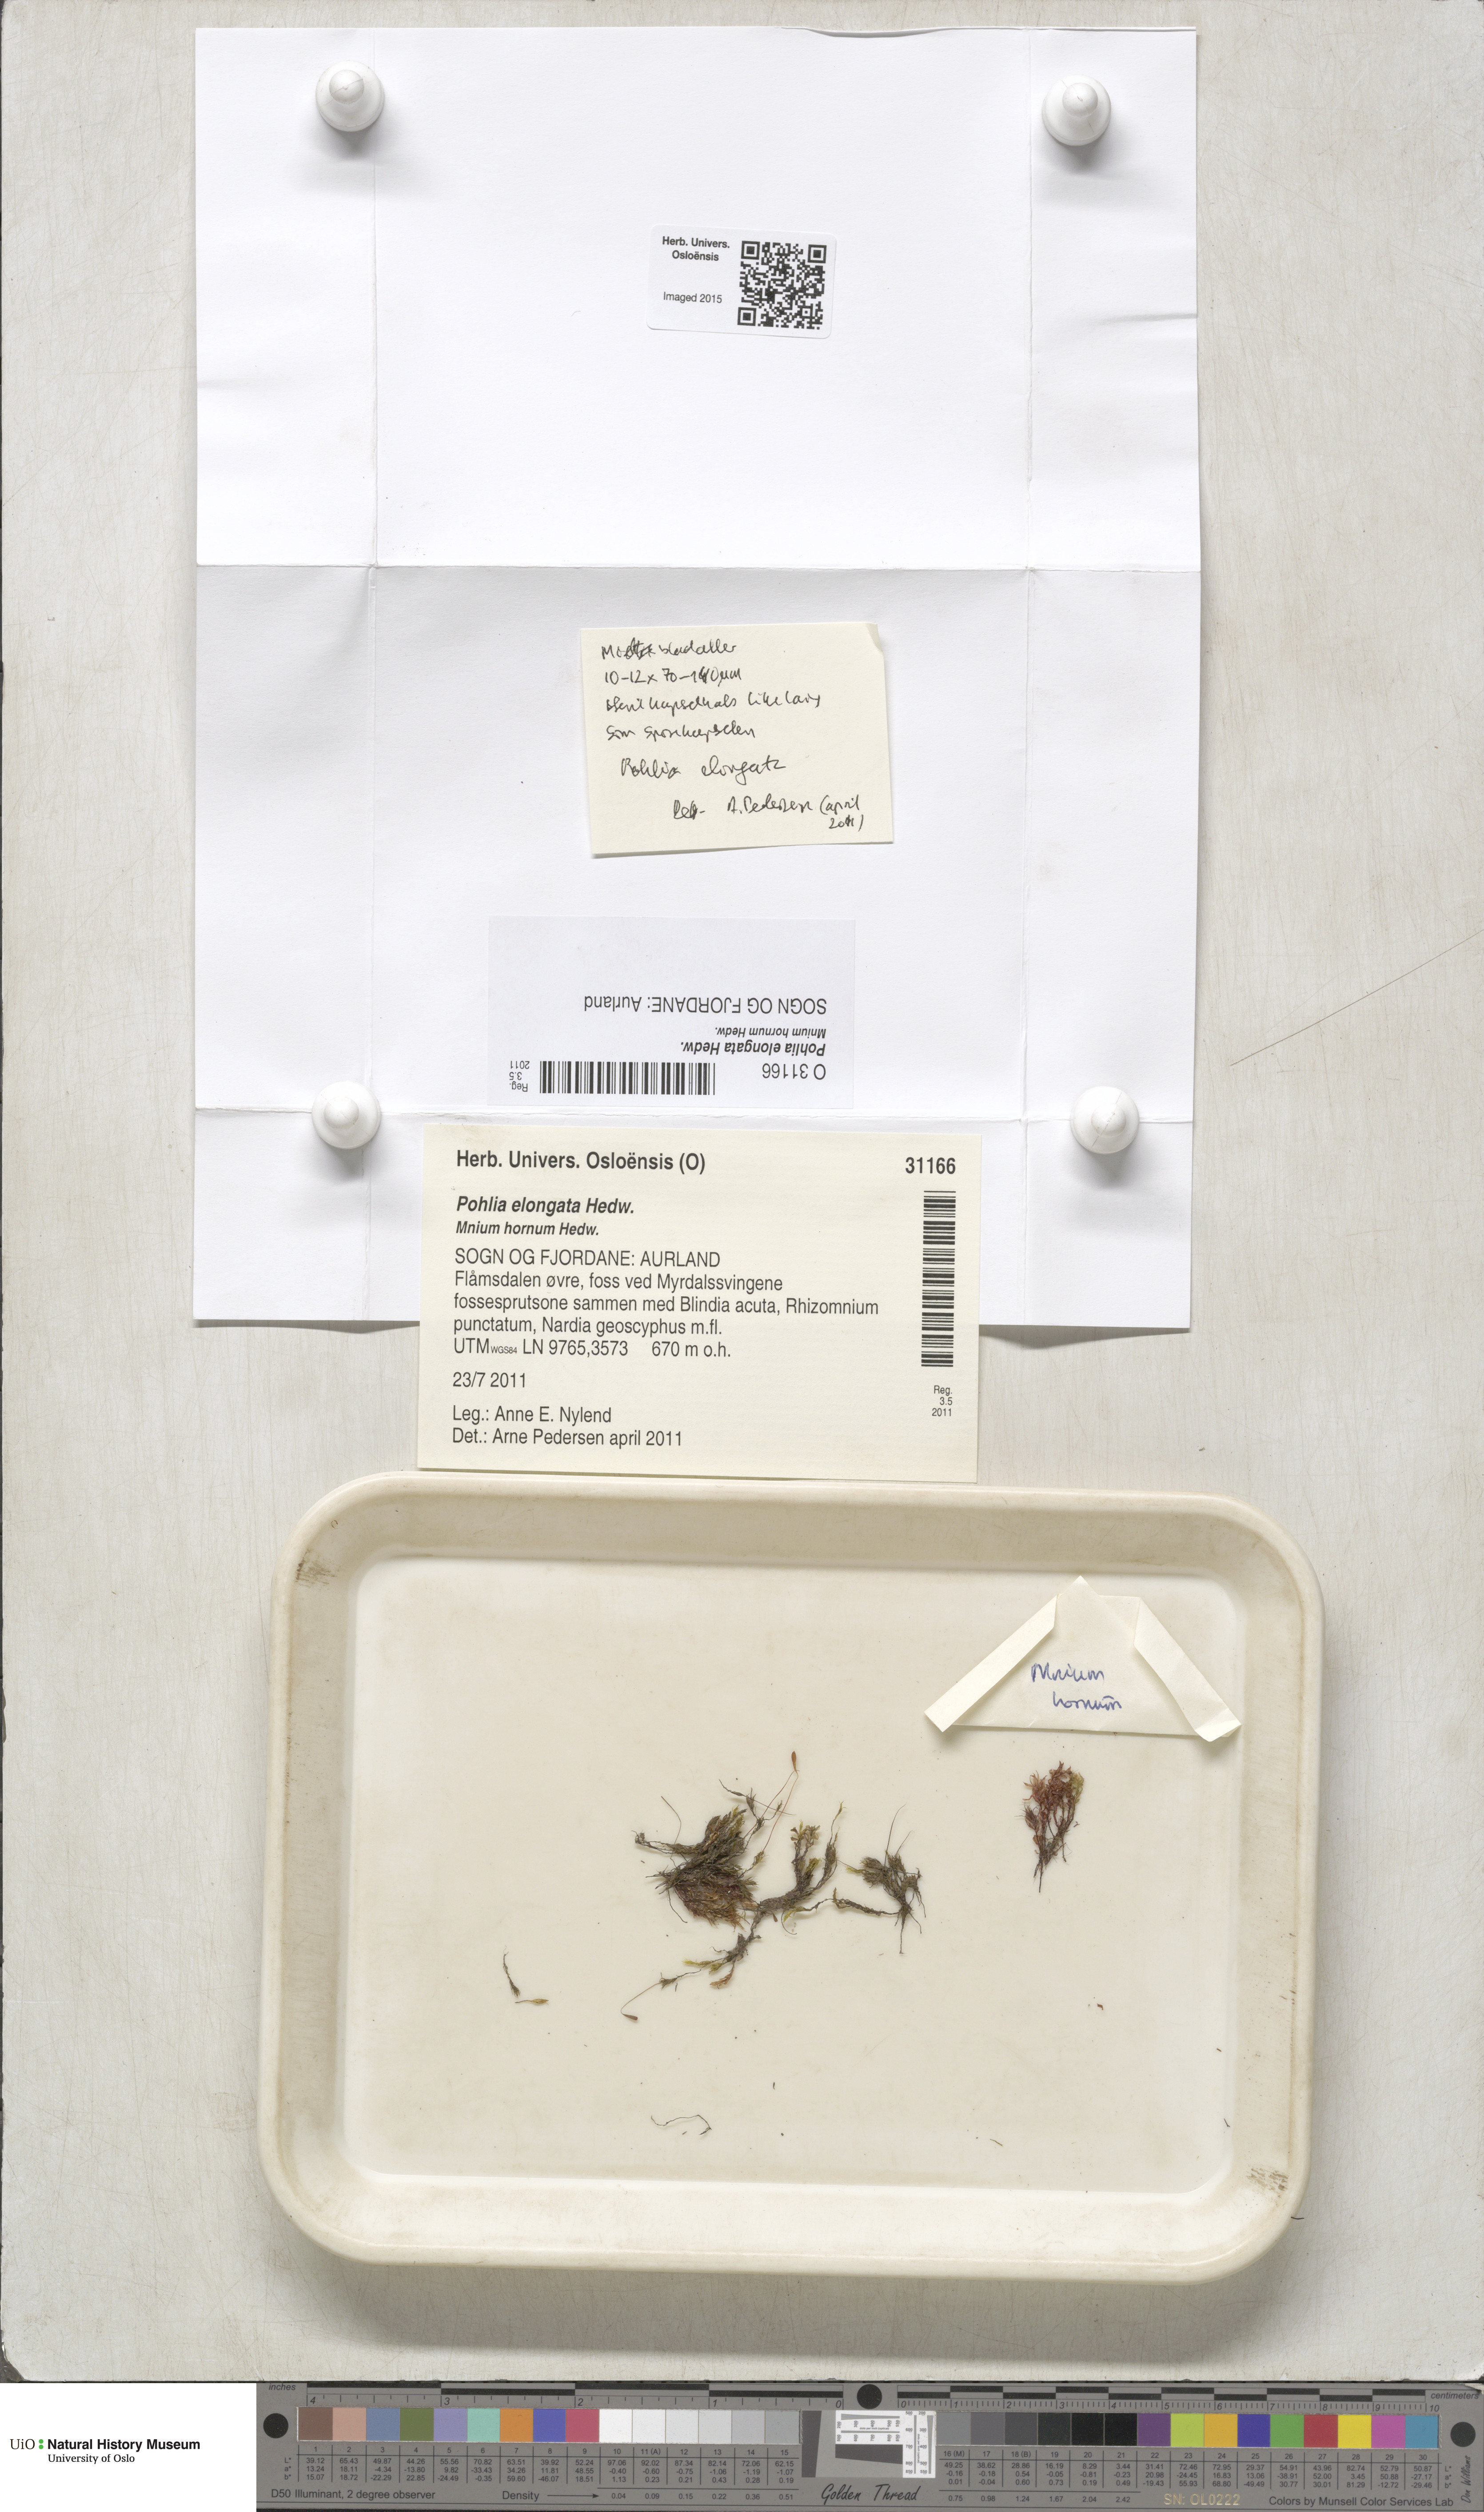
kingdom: Plantae
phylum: Bryophyta
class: Bryopsida
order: Bryales
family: Mniaceae
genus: Pohlia
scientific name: Pohlia elongata
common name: Long-fruited thread-moss
